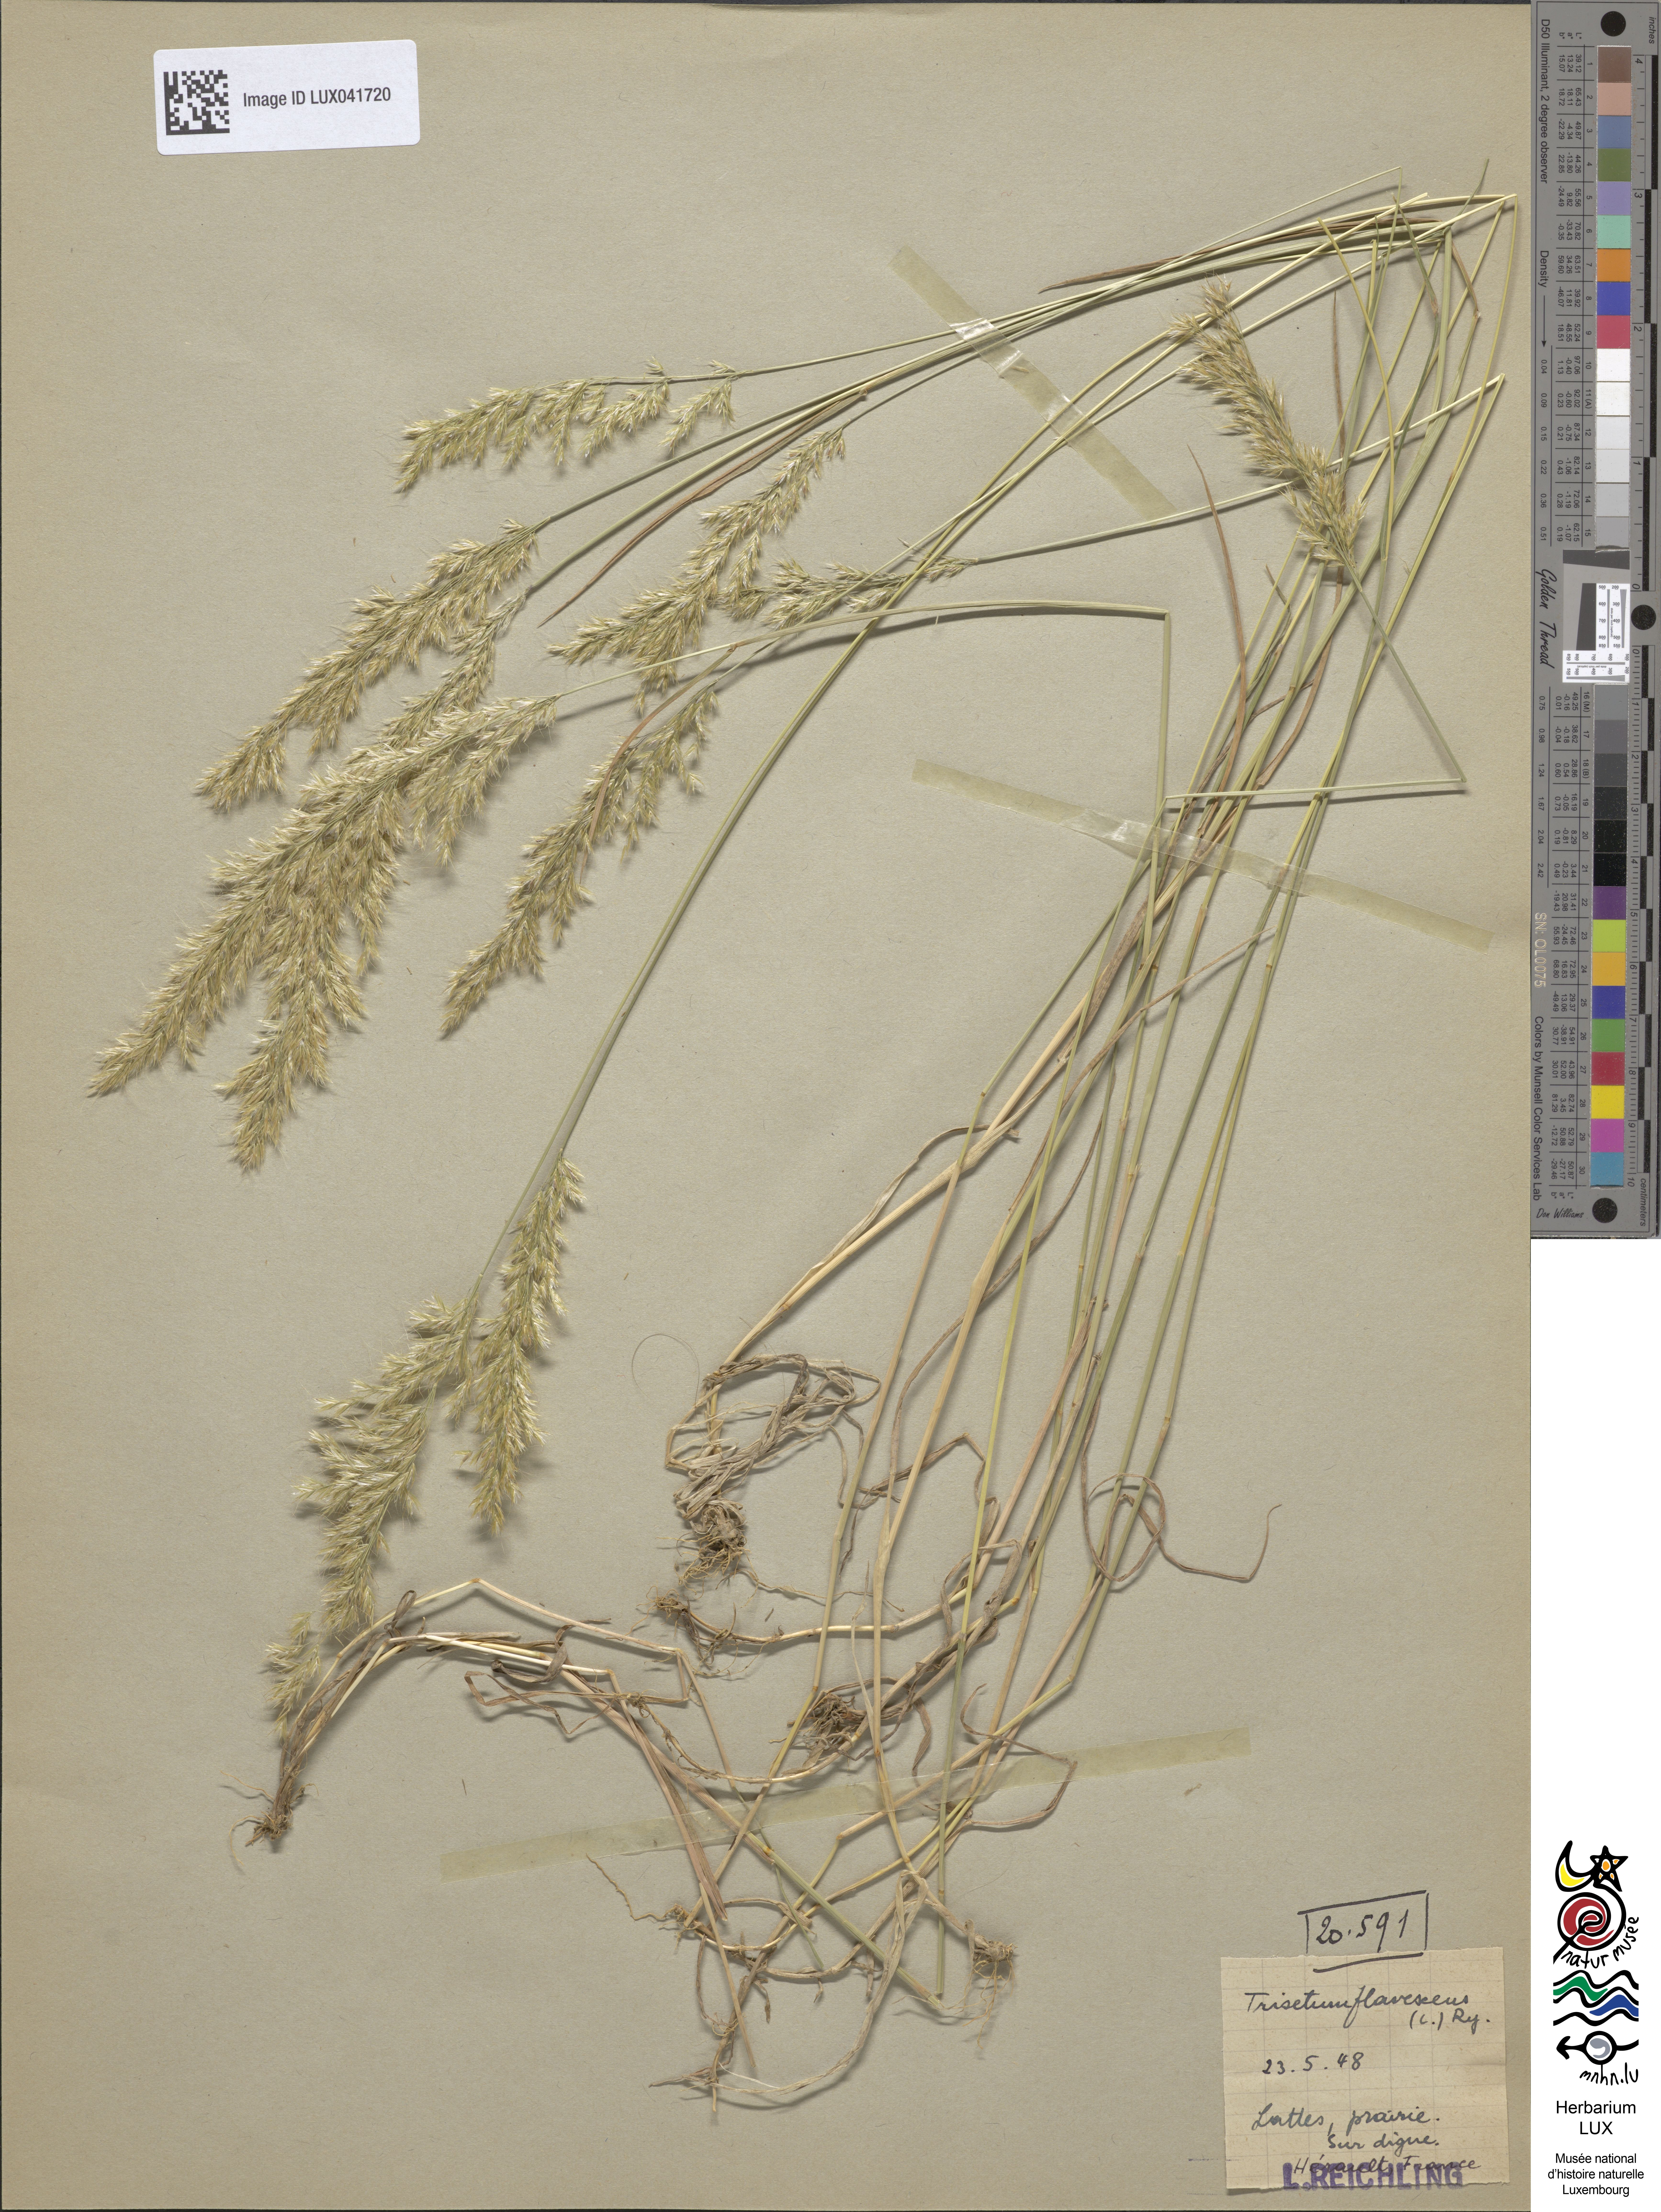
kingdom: Plantae
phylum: Tracheophyta
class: Liliopsida
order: Poales
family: Poaceae
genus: Trisetum
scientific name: Trisetum flavescens
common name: Yellow oat-grass
